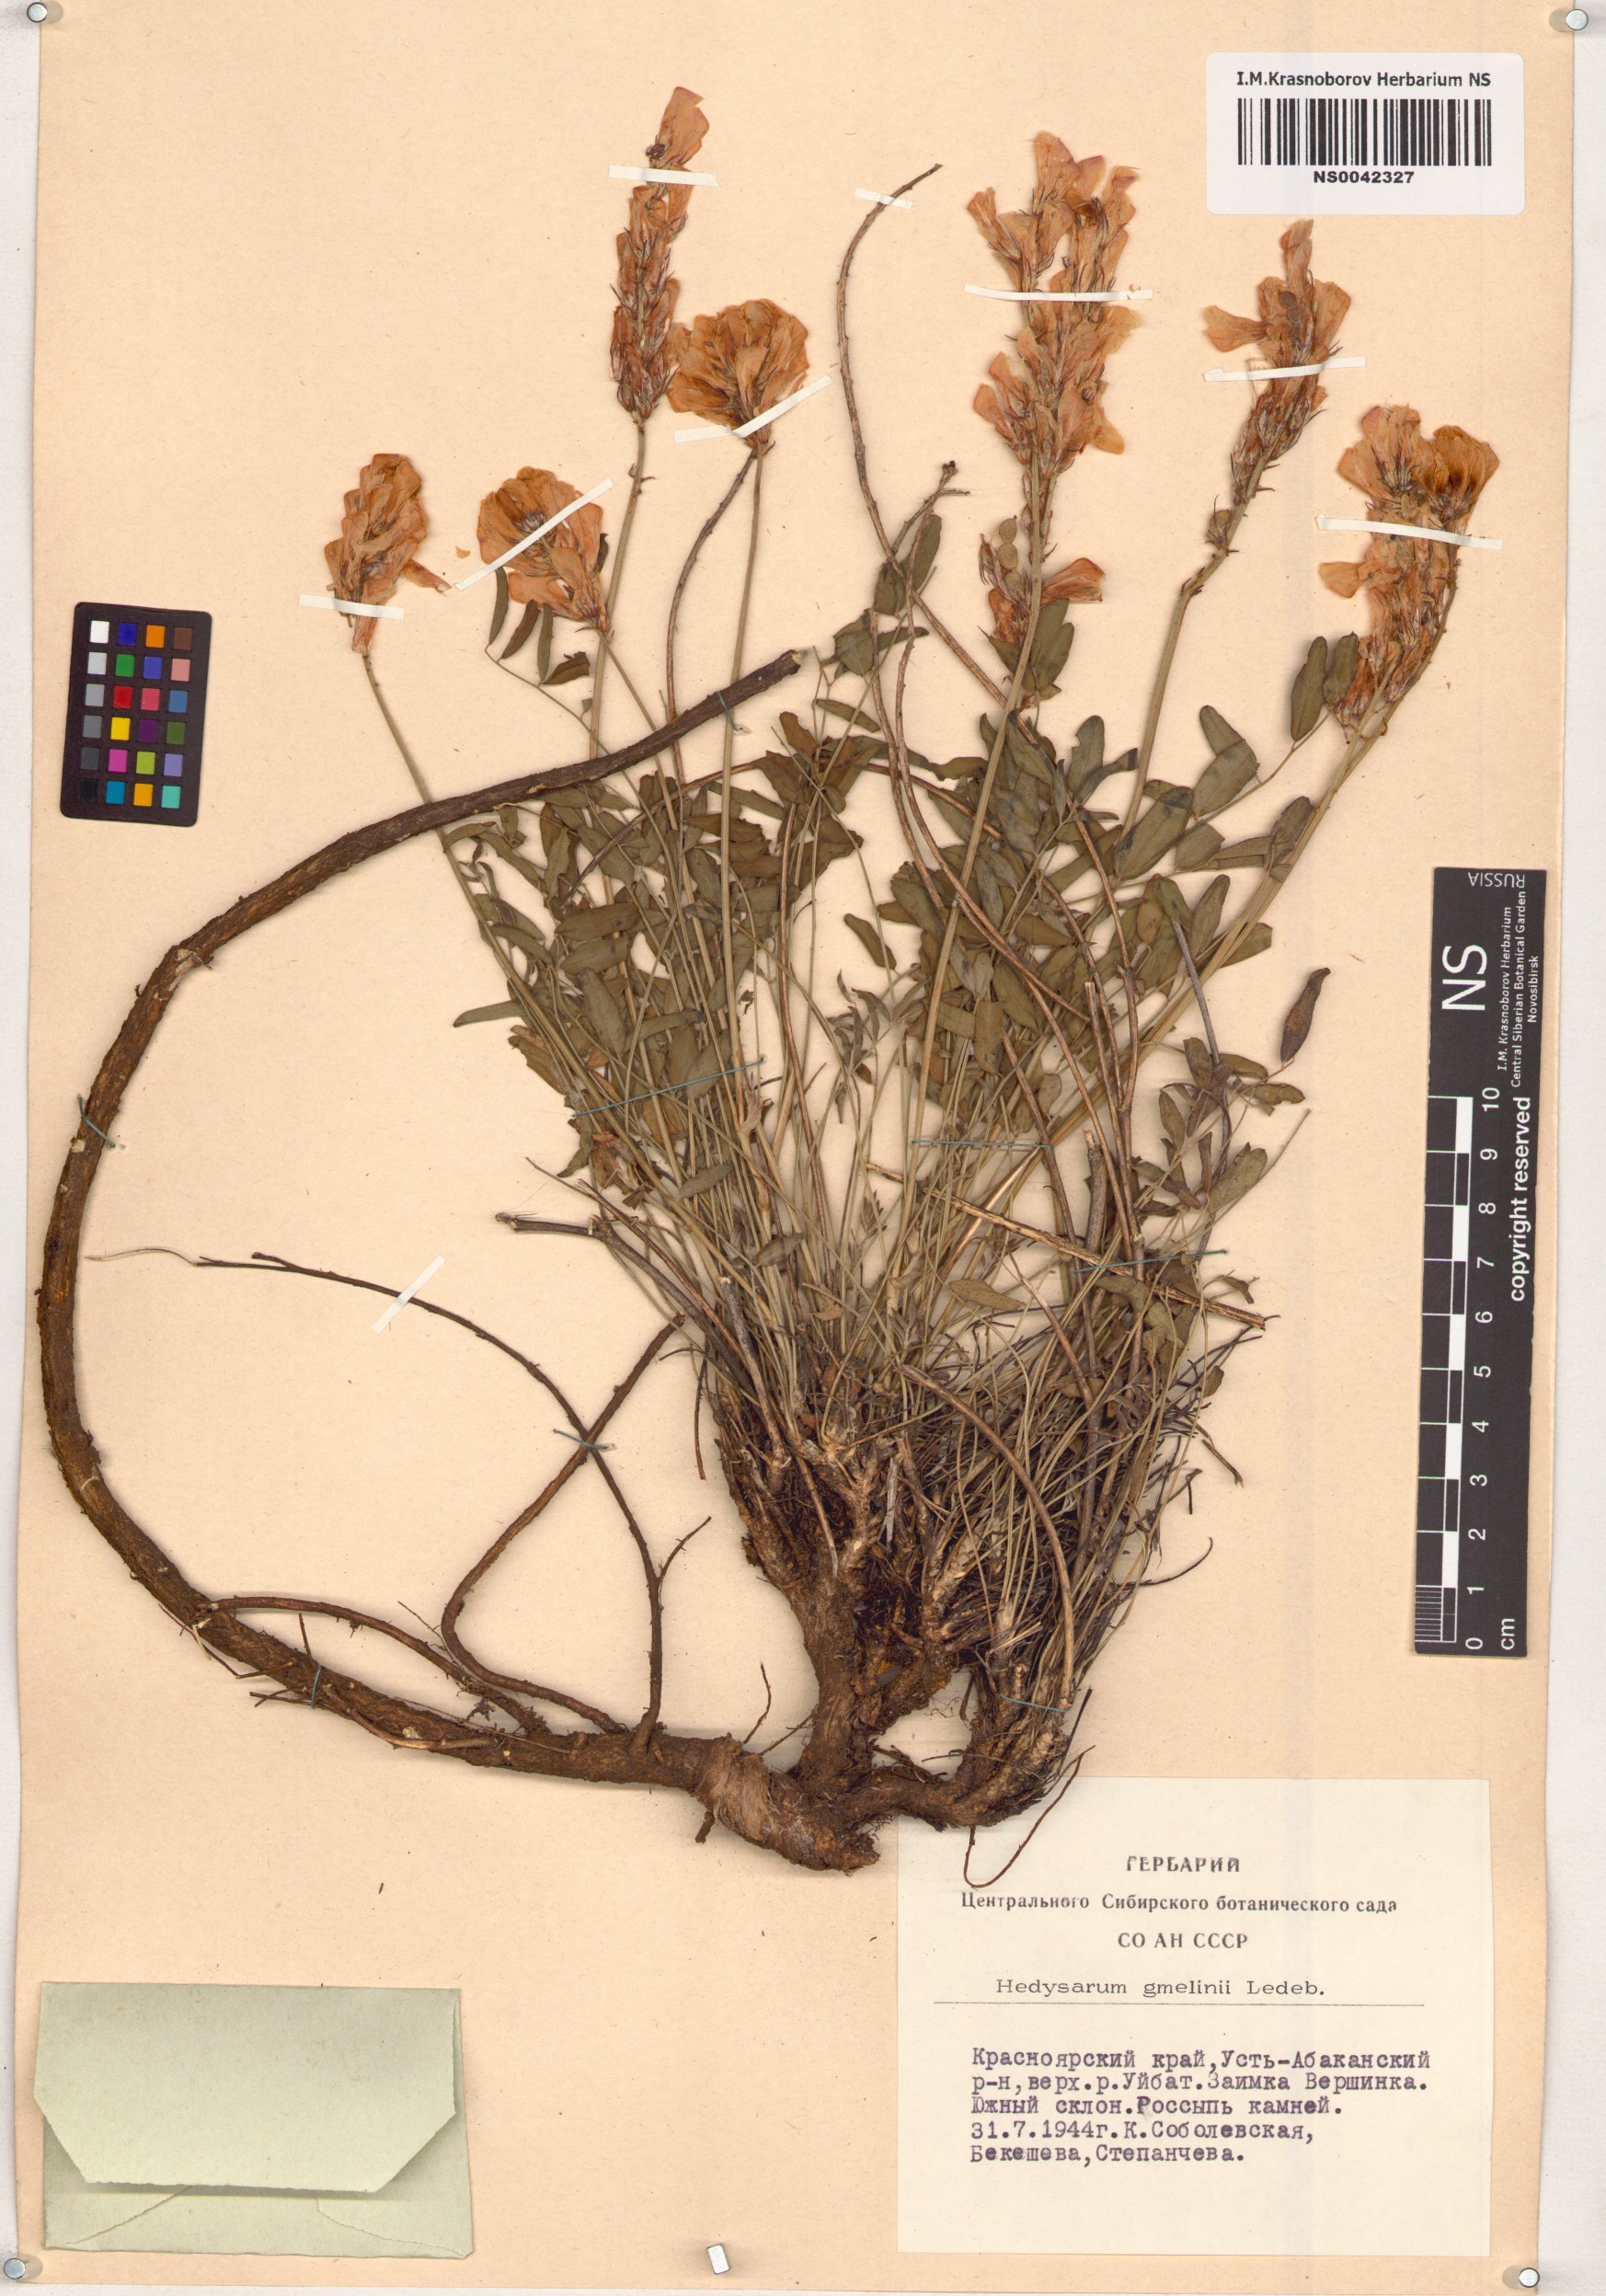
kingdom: Plantae
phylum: Tracheophyta
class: Magnoliopsida
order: Fabales
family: Fabaceae
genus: Hedysarum
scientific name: Hedysarum gmelinii
